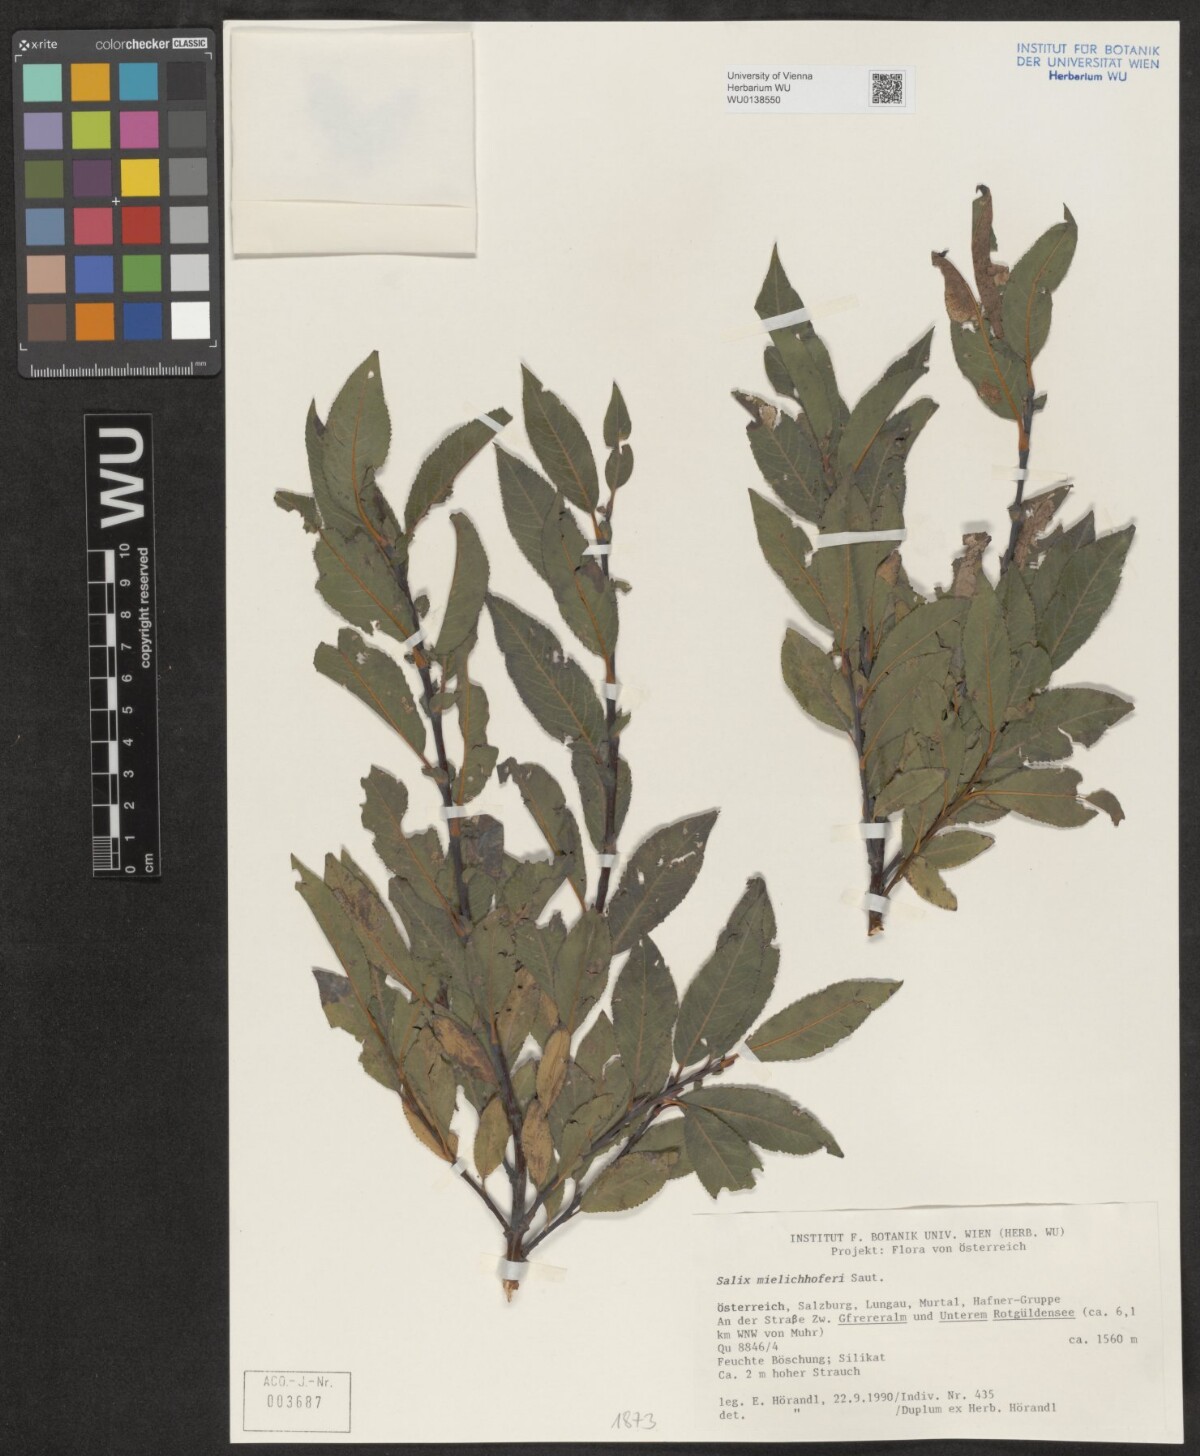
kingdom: Plantae
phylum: Tracheophyta
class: Magnoliopsida
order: Malpighiales
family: Salicaceae
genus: Salix
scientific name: Salix mielichhoferi
